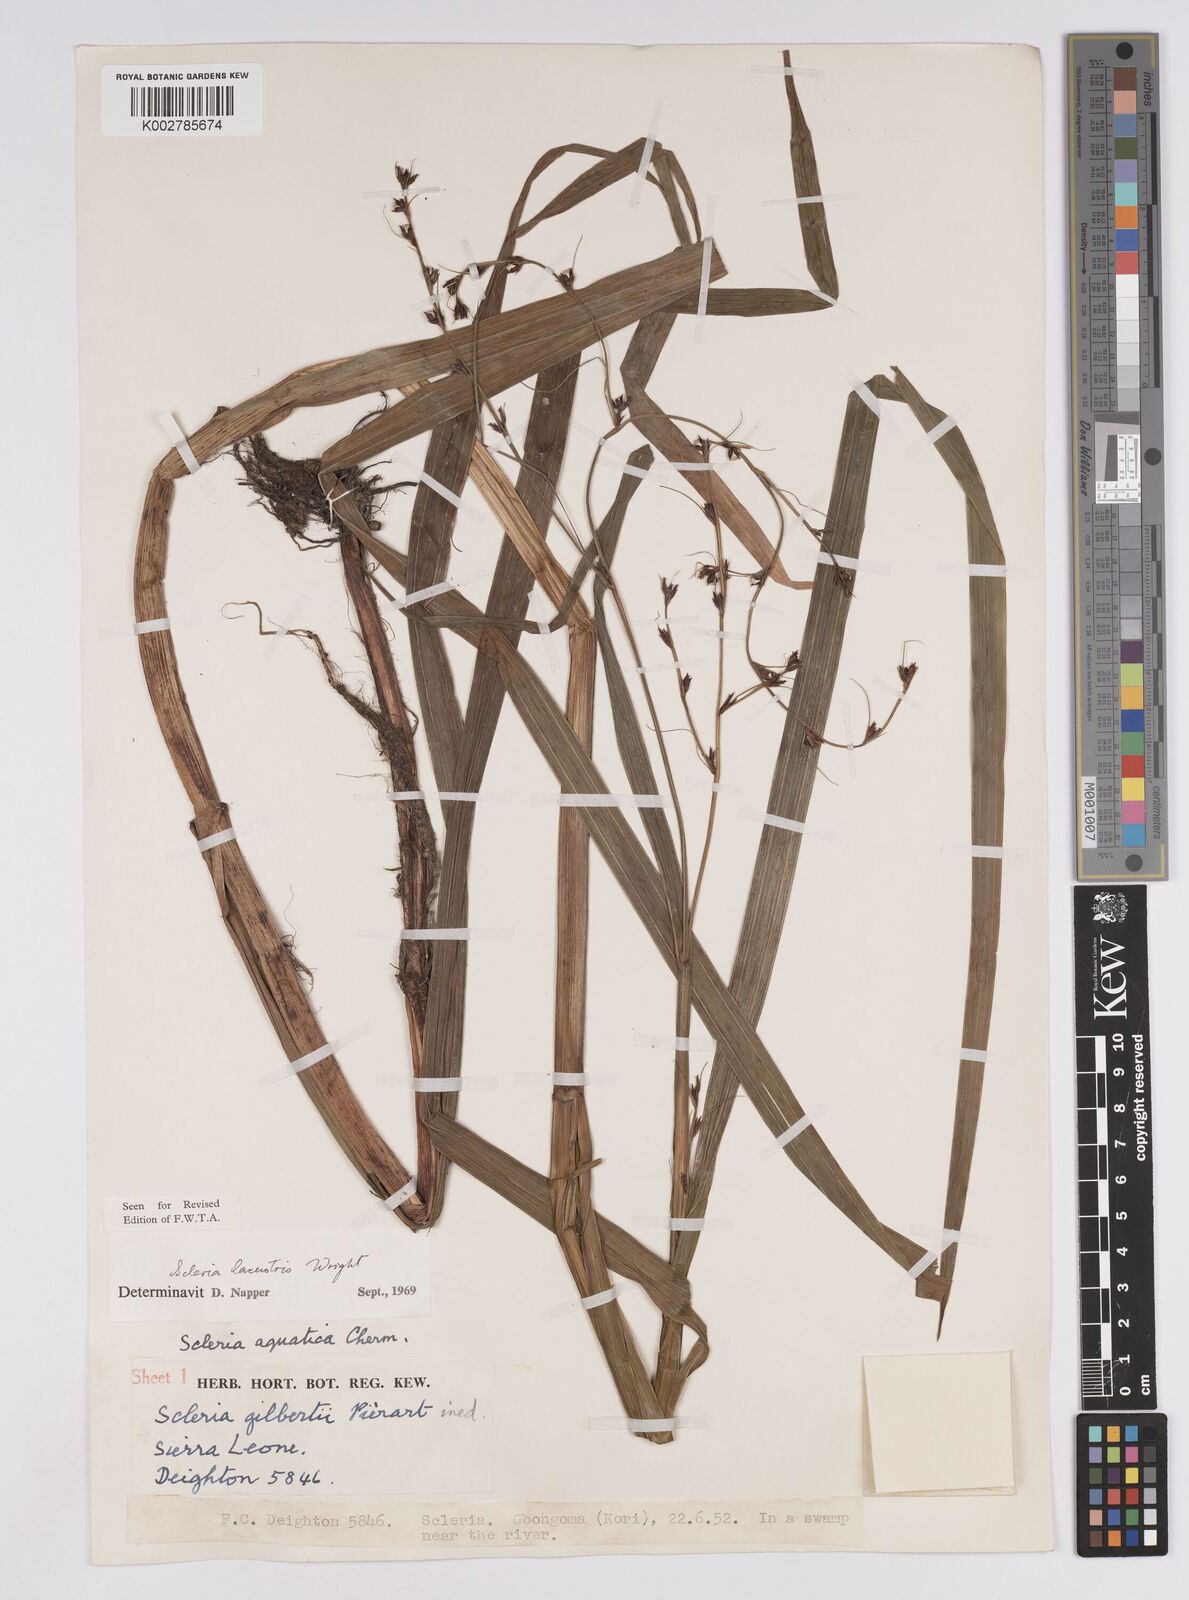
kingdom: Plantae
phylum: Tracheophyta
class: Liliopsida
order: Poales
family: Cyperaceae
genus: Scleria
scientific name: Scleria lacustris
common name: Lakeshore nutrush
